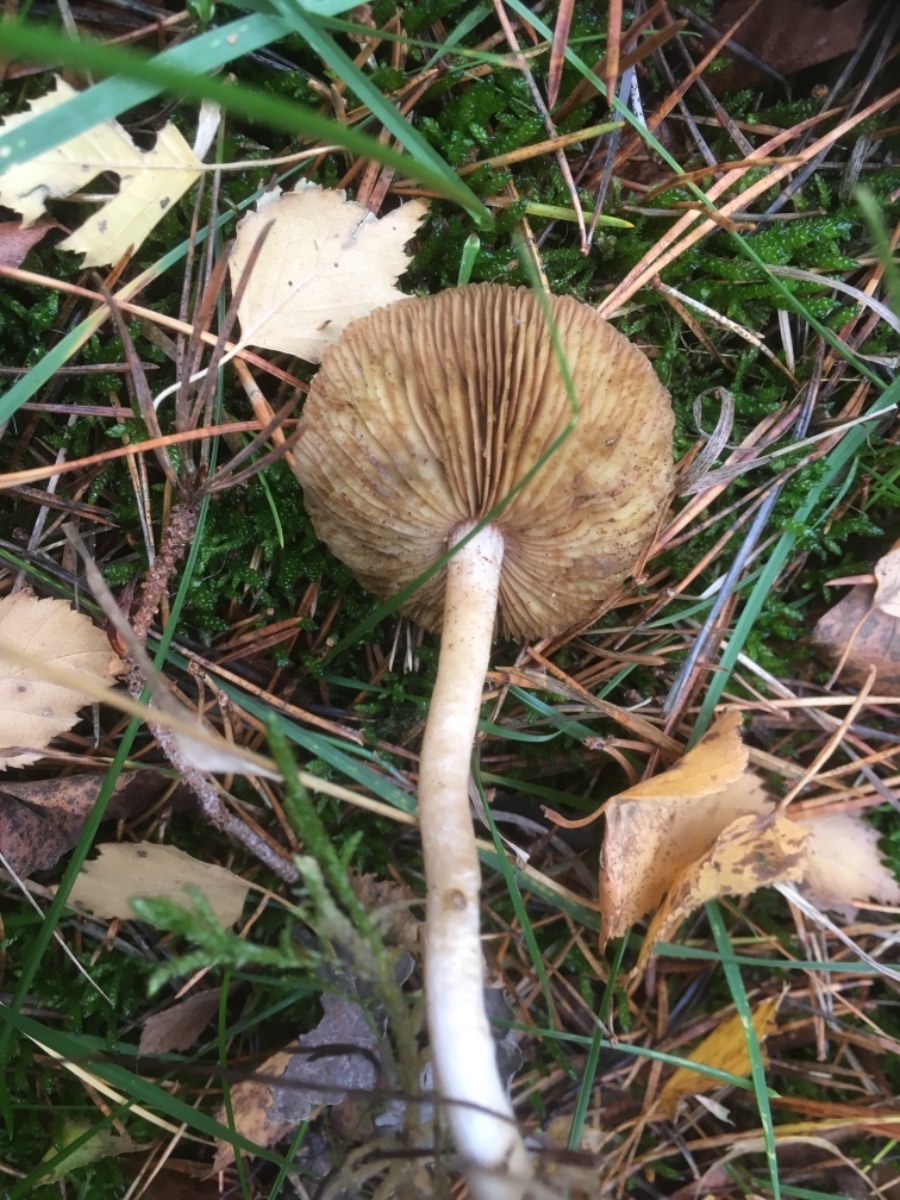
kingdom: Fungi
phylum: Basidiomycota
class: Agaricomycetes
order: Agaricales
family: Inocybaceae
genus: Inocybe
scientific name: Inocybe
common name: trævlhat
